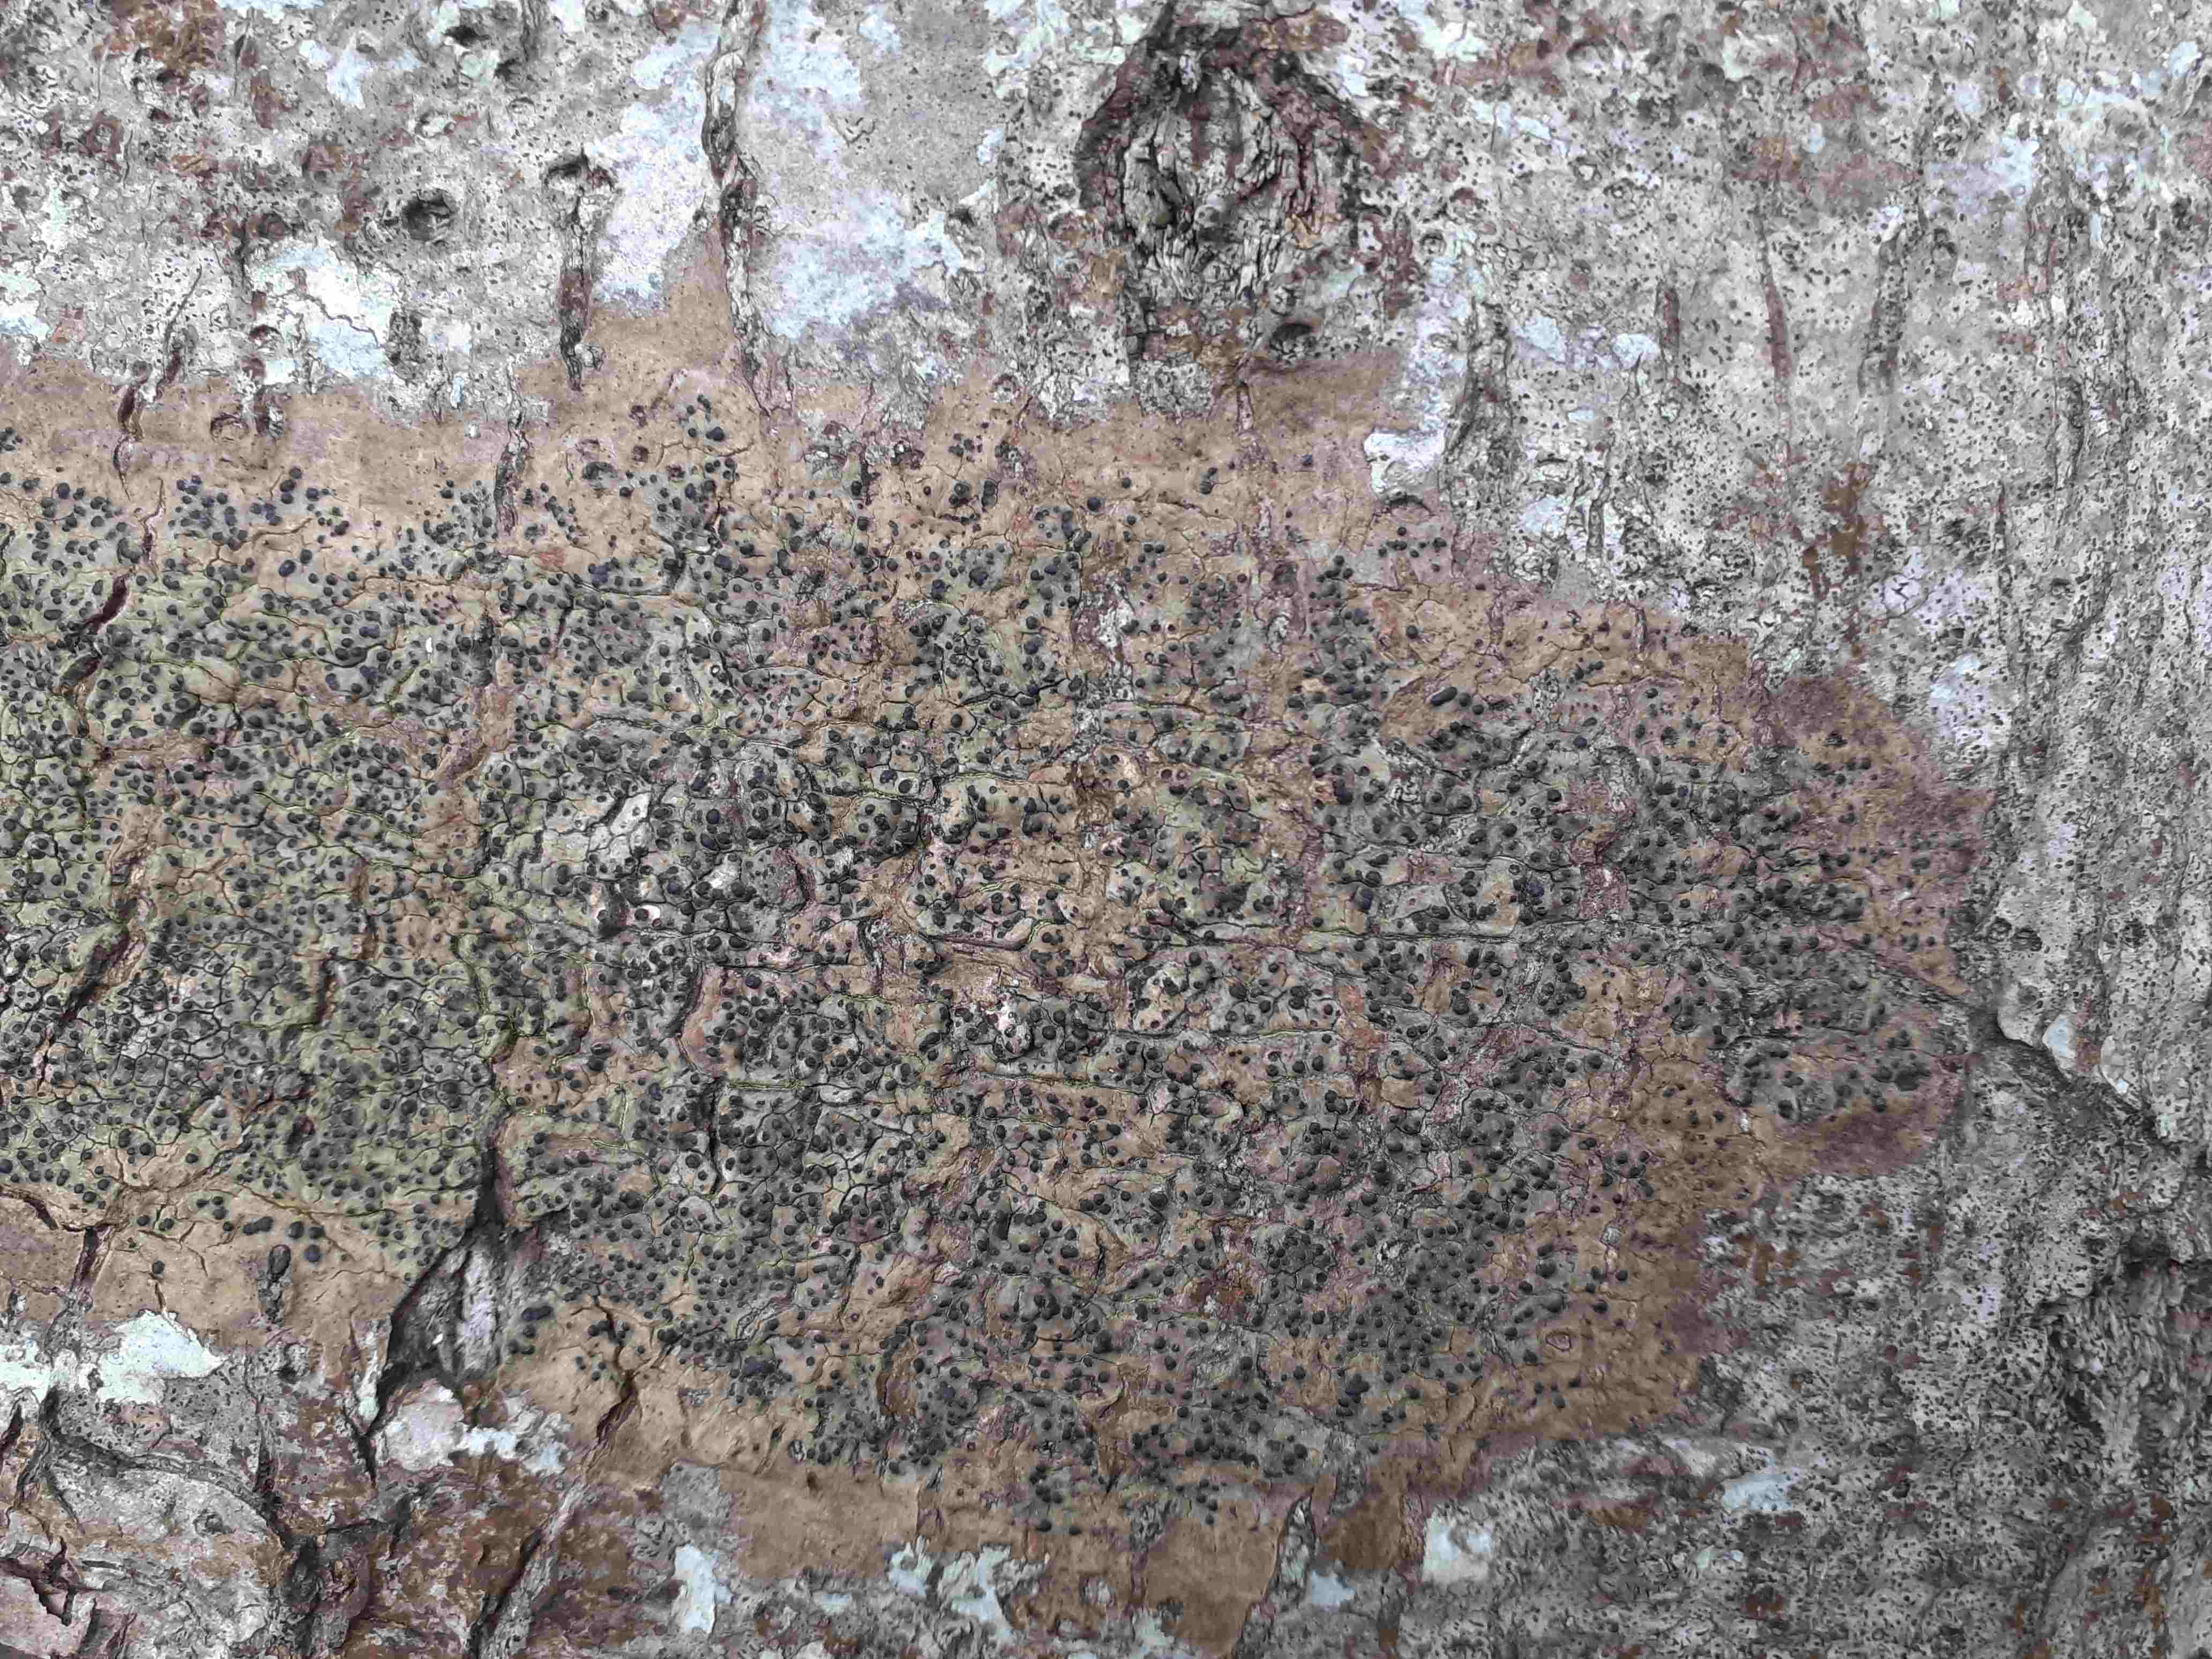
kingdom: Fungi
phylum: Ascomycota
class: Eurotiomycetes
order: Pyrenulales
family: Pyrenulaceae
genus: Pyrenula
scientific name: Pyrenula nitida
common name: glinsende kernelav
